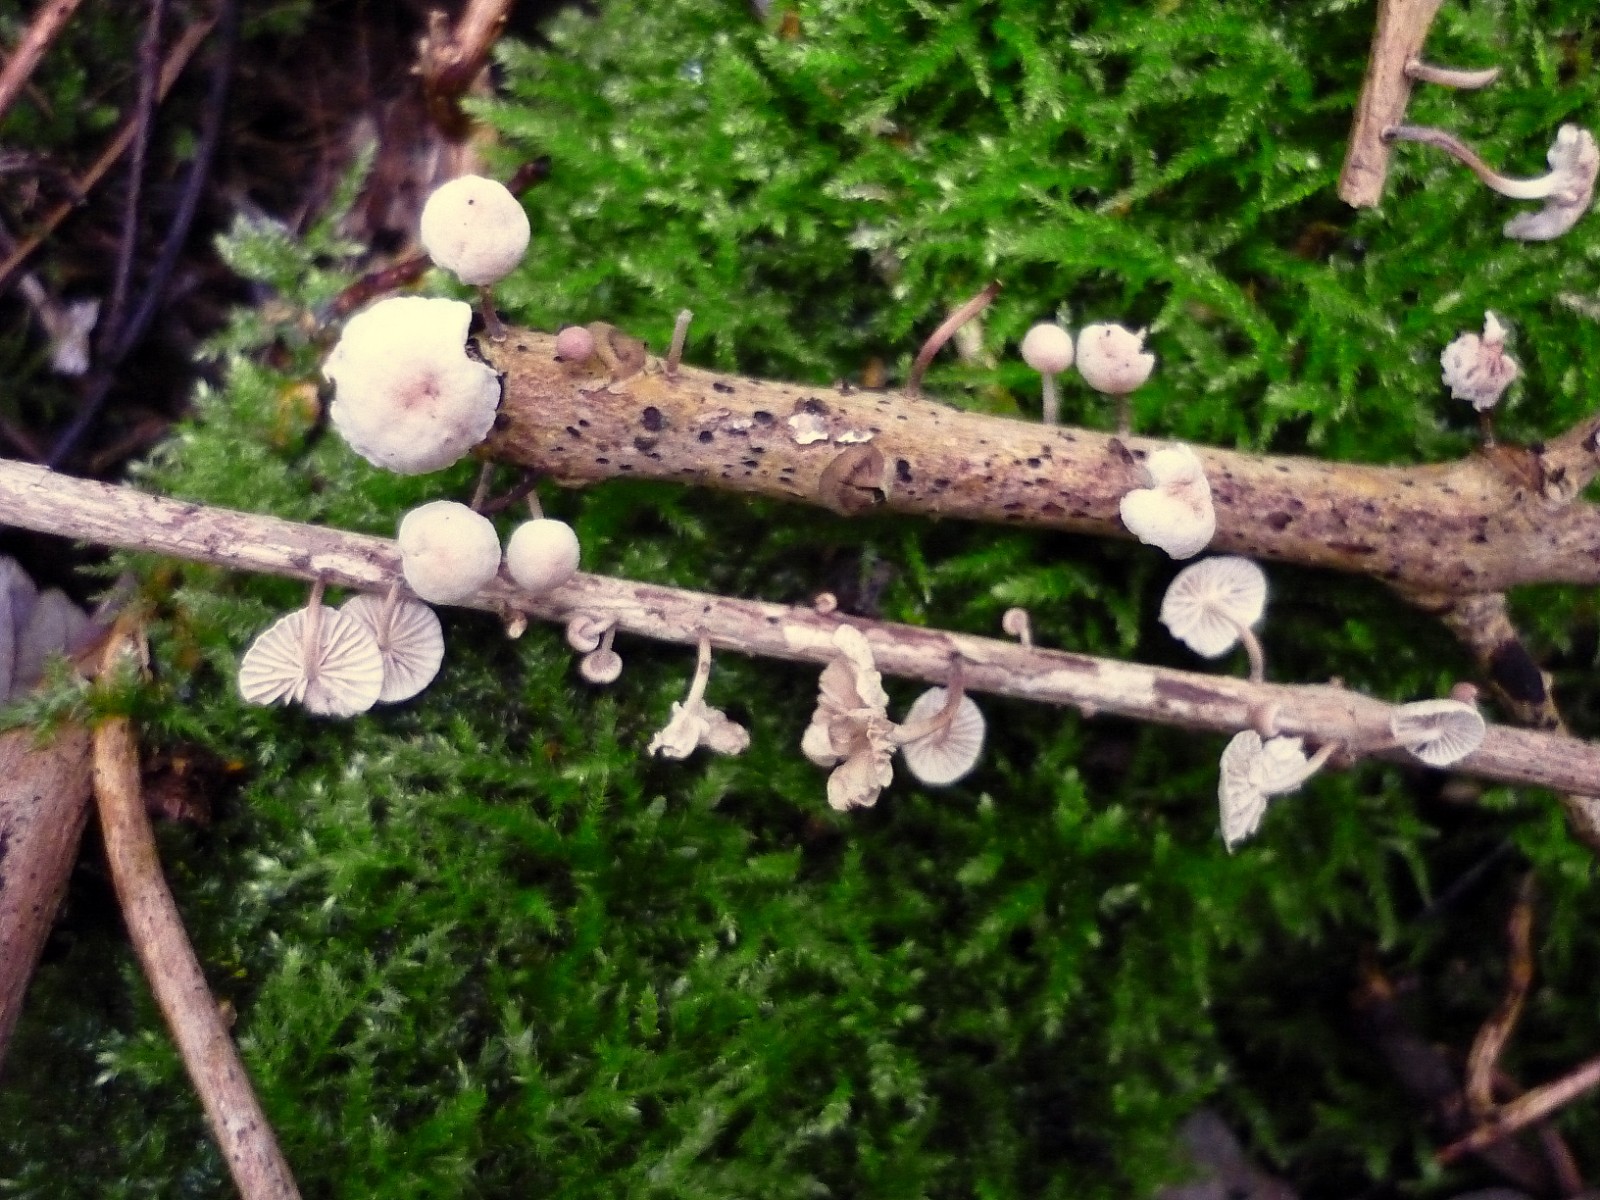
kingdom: Fungi
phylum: Basidiomycota
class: Agaricomycetes
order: Agaricales
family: Omphalotaceae
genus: Collybiopsis
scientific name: Collybiopsis ramealis
